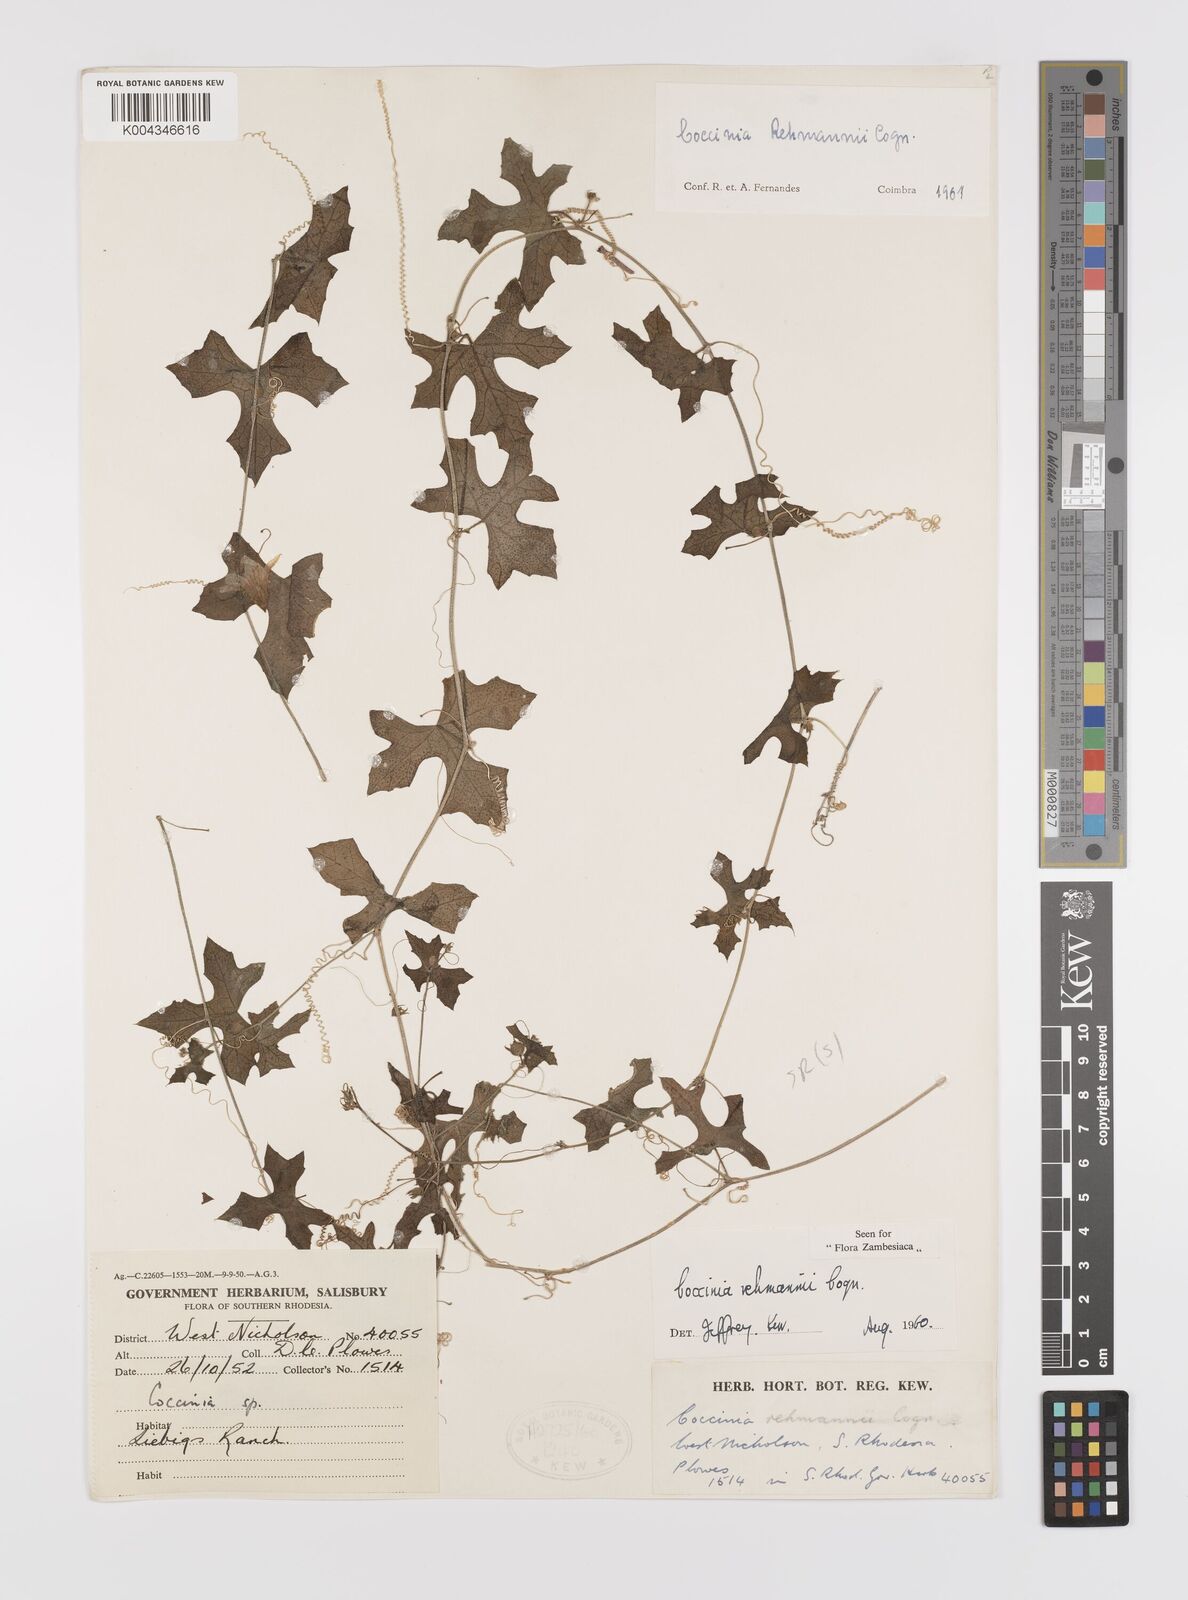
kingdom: Plantae
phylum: Tracheophyta
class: Magnoliopsida
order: Cucurbitales
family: Cucurbitaceae
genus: Coccinia
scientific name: Coccinia rehmannii
